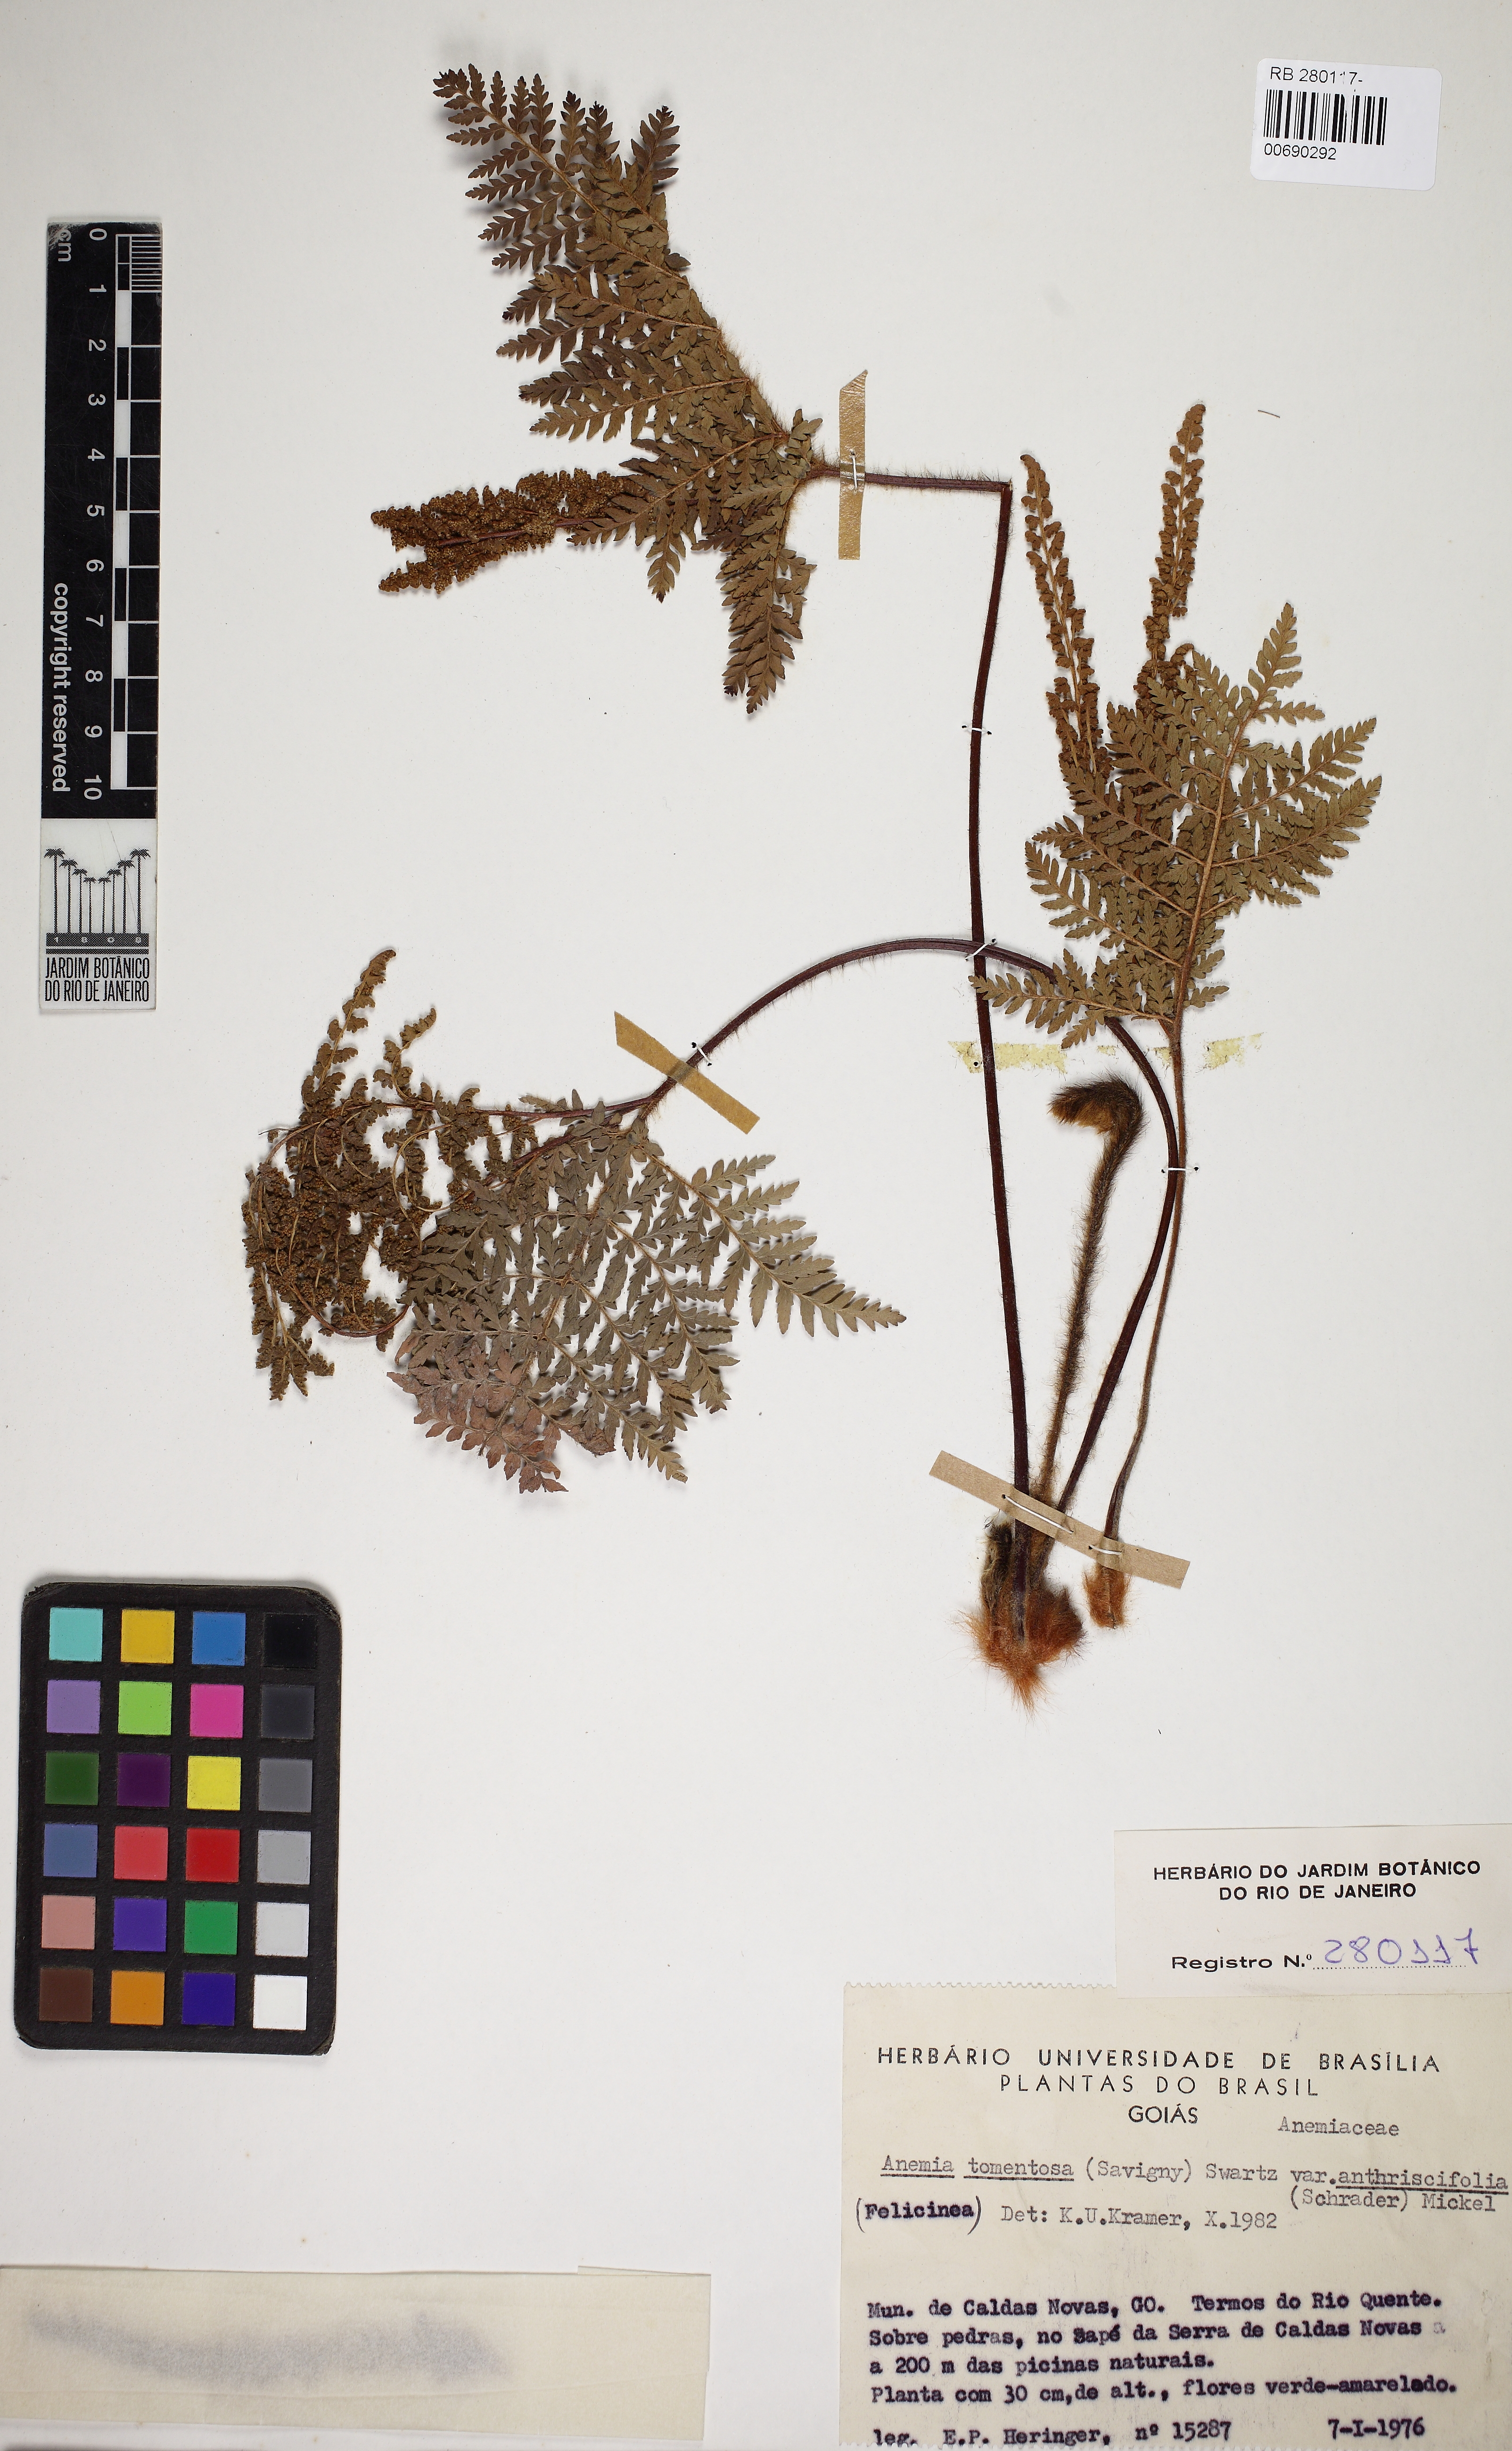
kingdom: Plantae
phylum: Tracheophyta
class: Polypodiopsida
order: Schizaeales
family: Anemiaceae
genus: Anemia
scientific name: Anemia tomentosa
